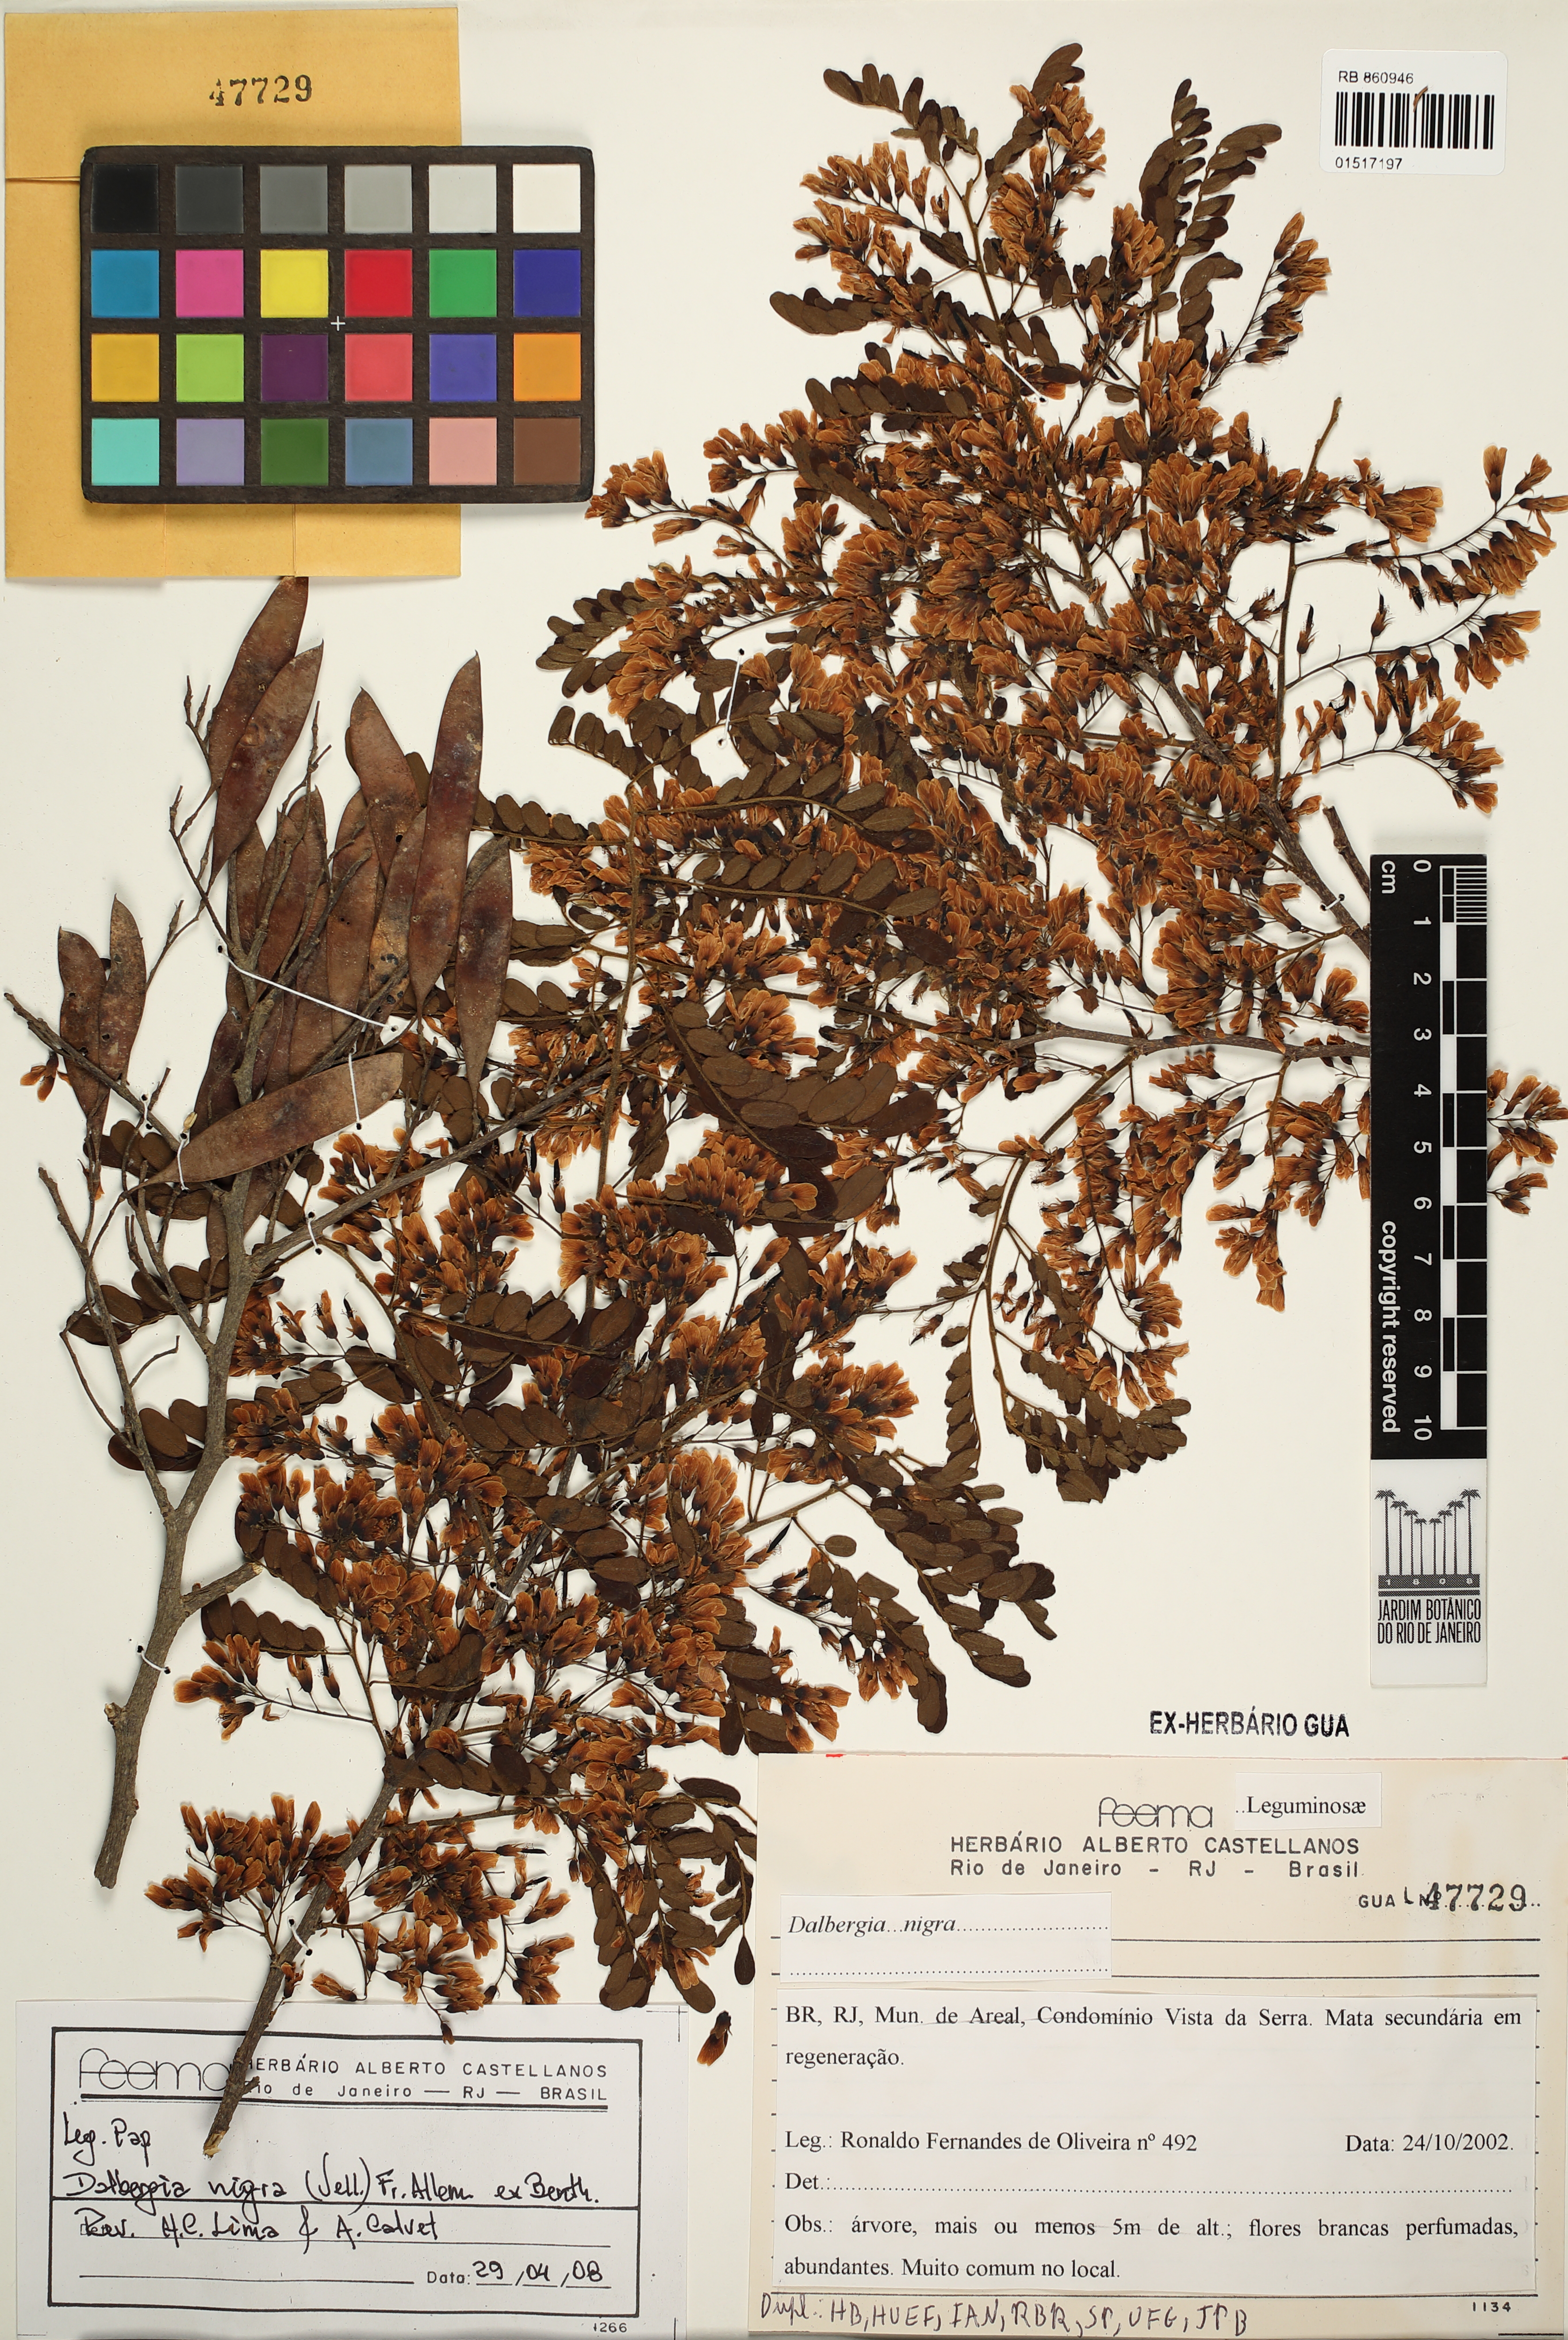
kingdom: Plantae
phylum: Tracheophyta
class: Magnoliopsida
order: Fabales
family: Fabaceae
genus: Dalbergia
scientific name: Dalbergia nigra
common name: Bahia rosewood
